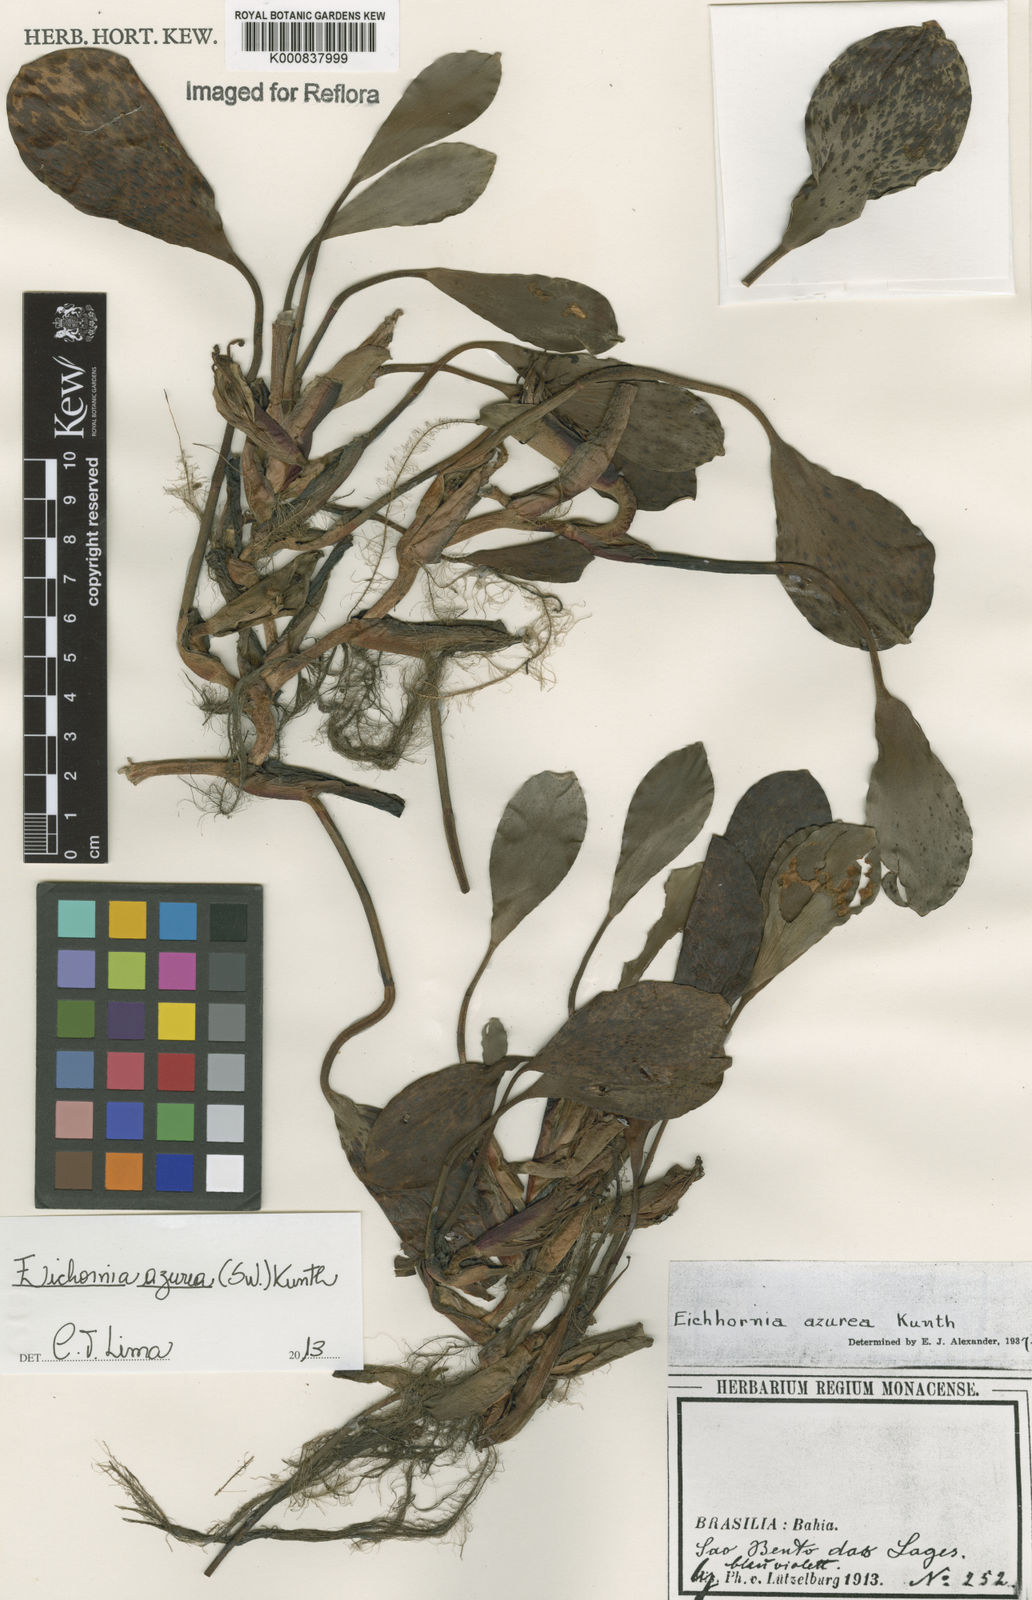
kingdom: Plantae
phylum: Tracheophyta
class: Liliopsida
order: Commelinales
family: Pontederiaceae
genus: Pontederia
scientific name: Pontederia azurea
